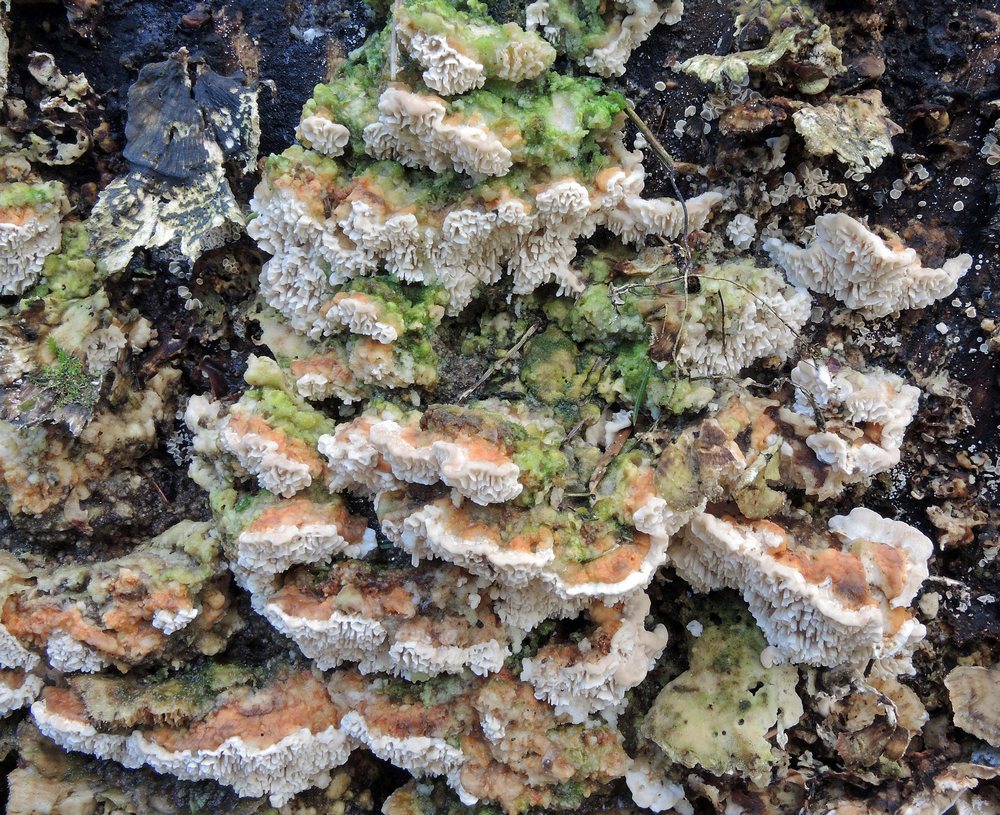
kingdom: Fungi
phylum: Basidiomycota
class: Agaricomycetes
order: Polyporales
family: Polyporaceae
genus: Lenzites
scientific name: Lenzites betulinus
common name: birke-læderporesvamp
